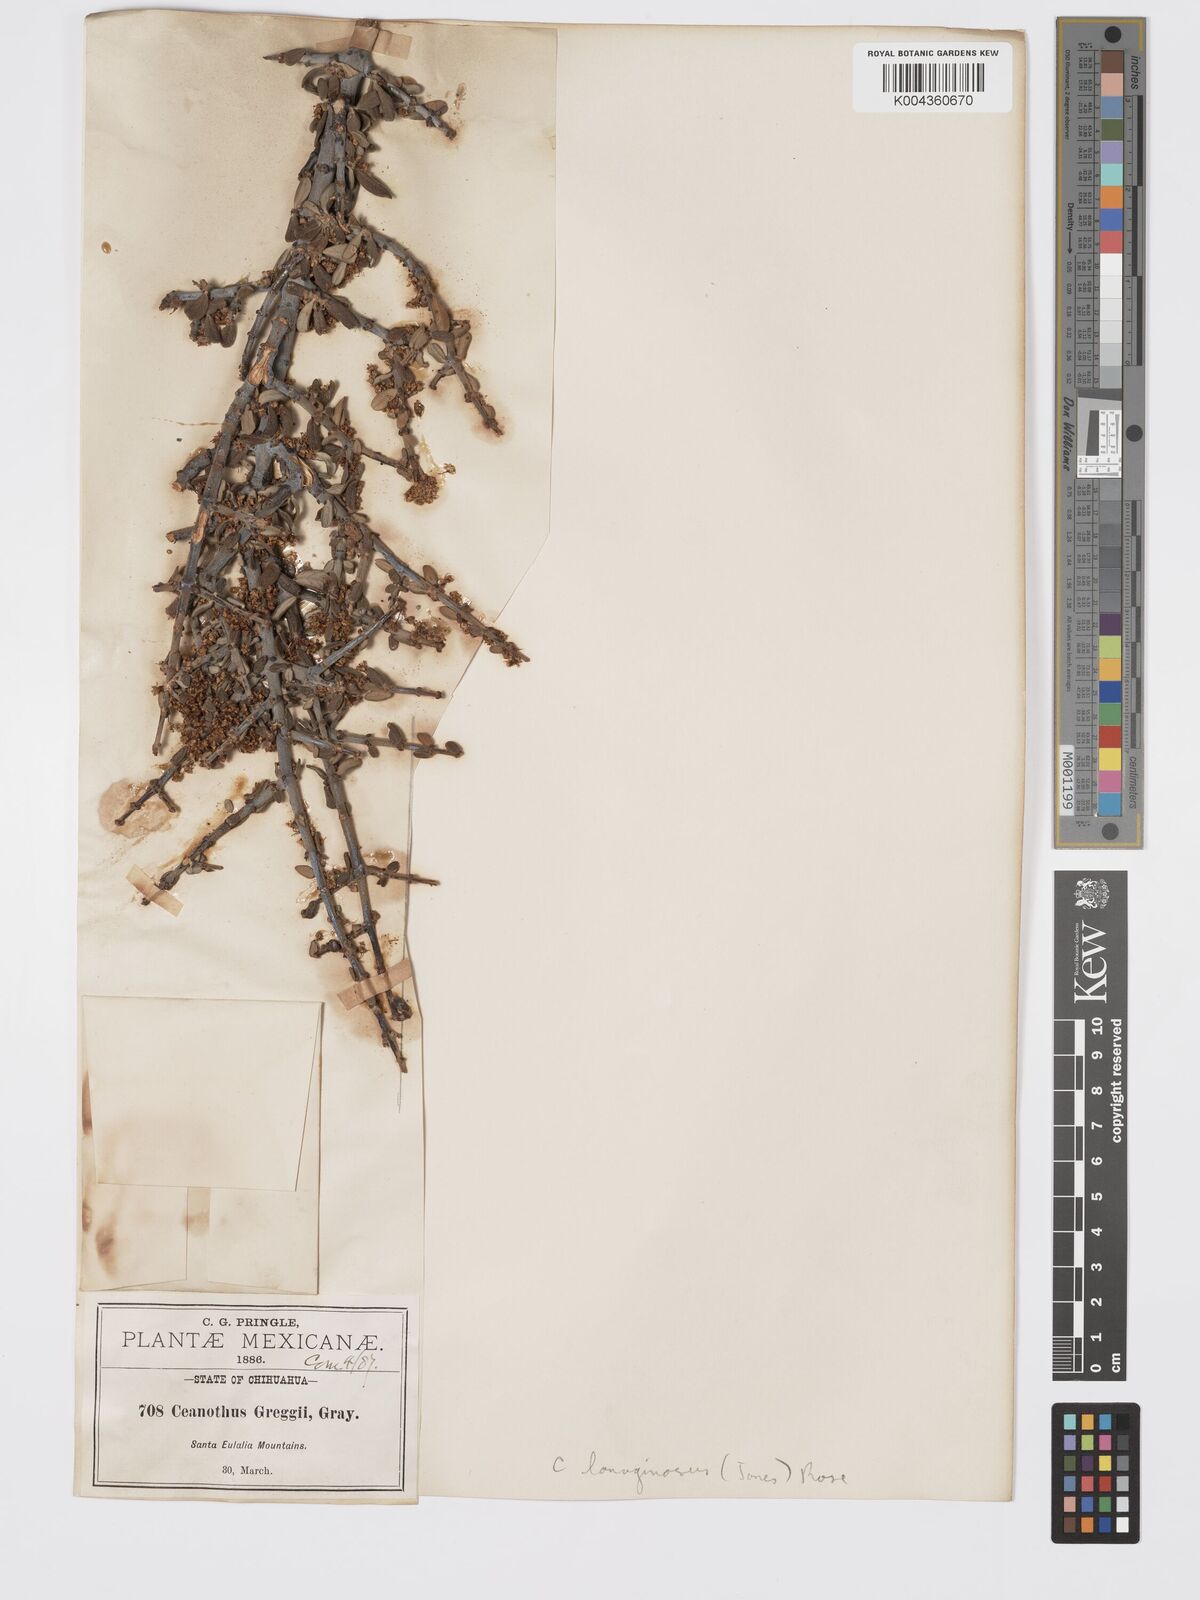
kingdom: Plantae
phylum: Tracheophyta
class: Magnoliopsida
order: Rosales
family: Rhamnaceae
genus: Ceanothus
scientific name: Ceanothus lanuginosus
